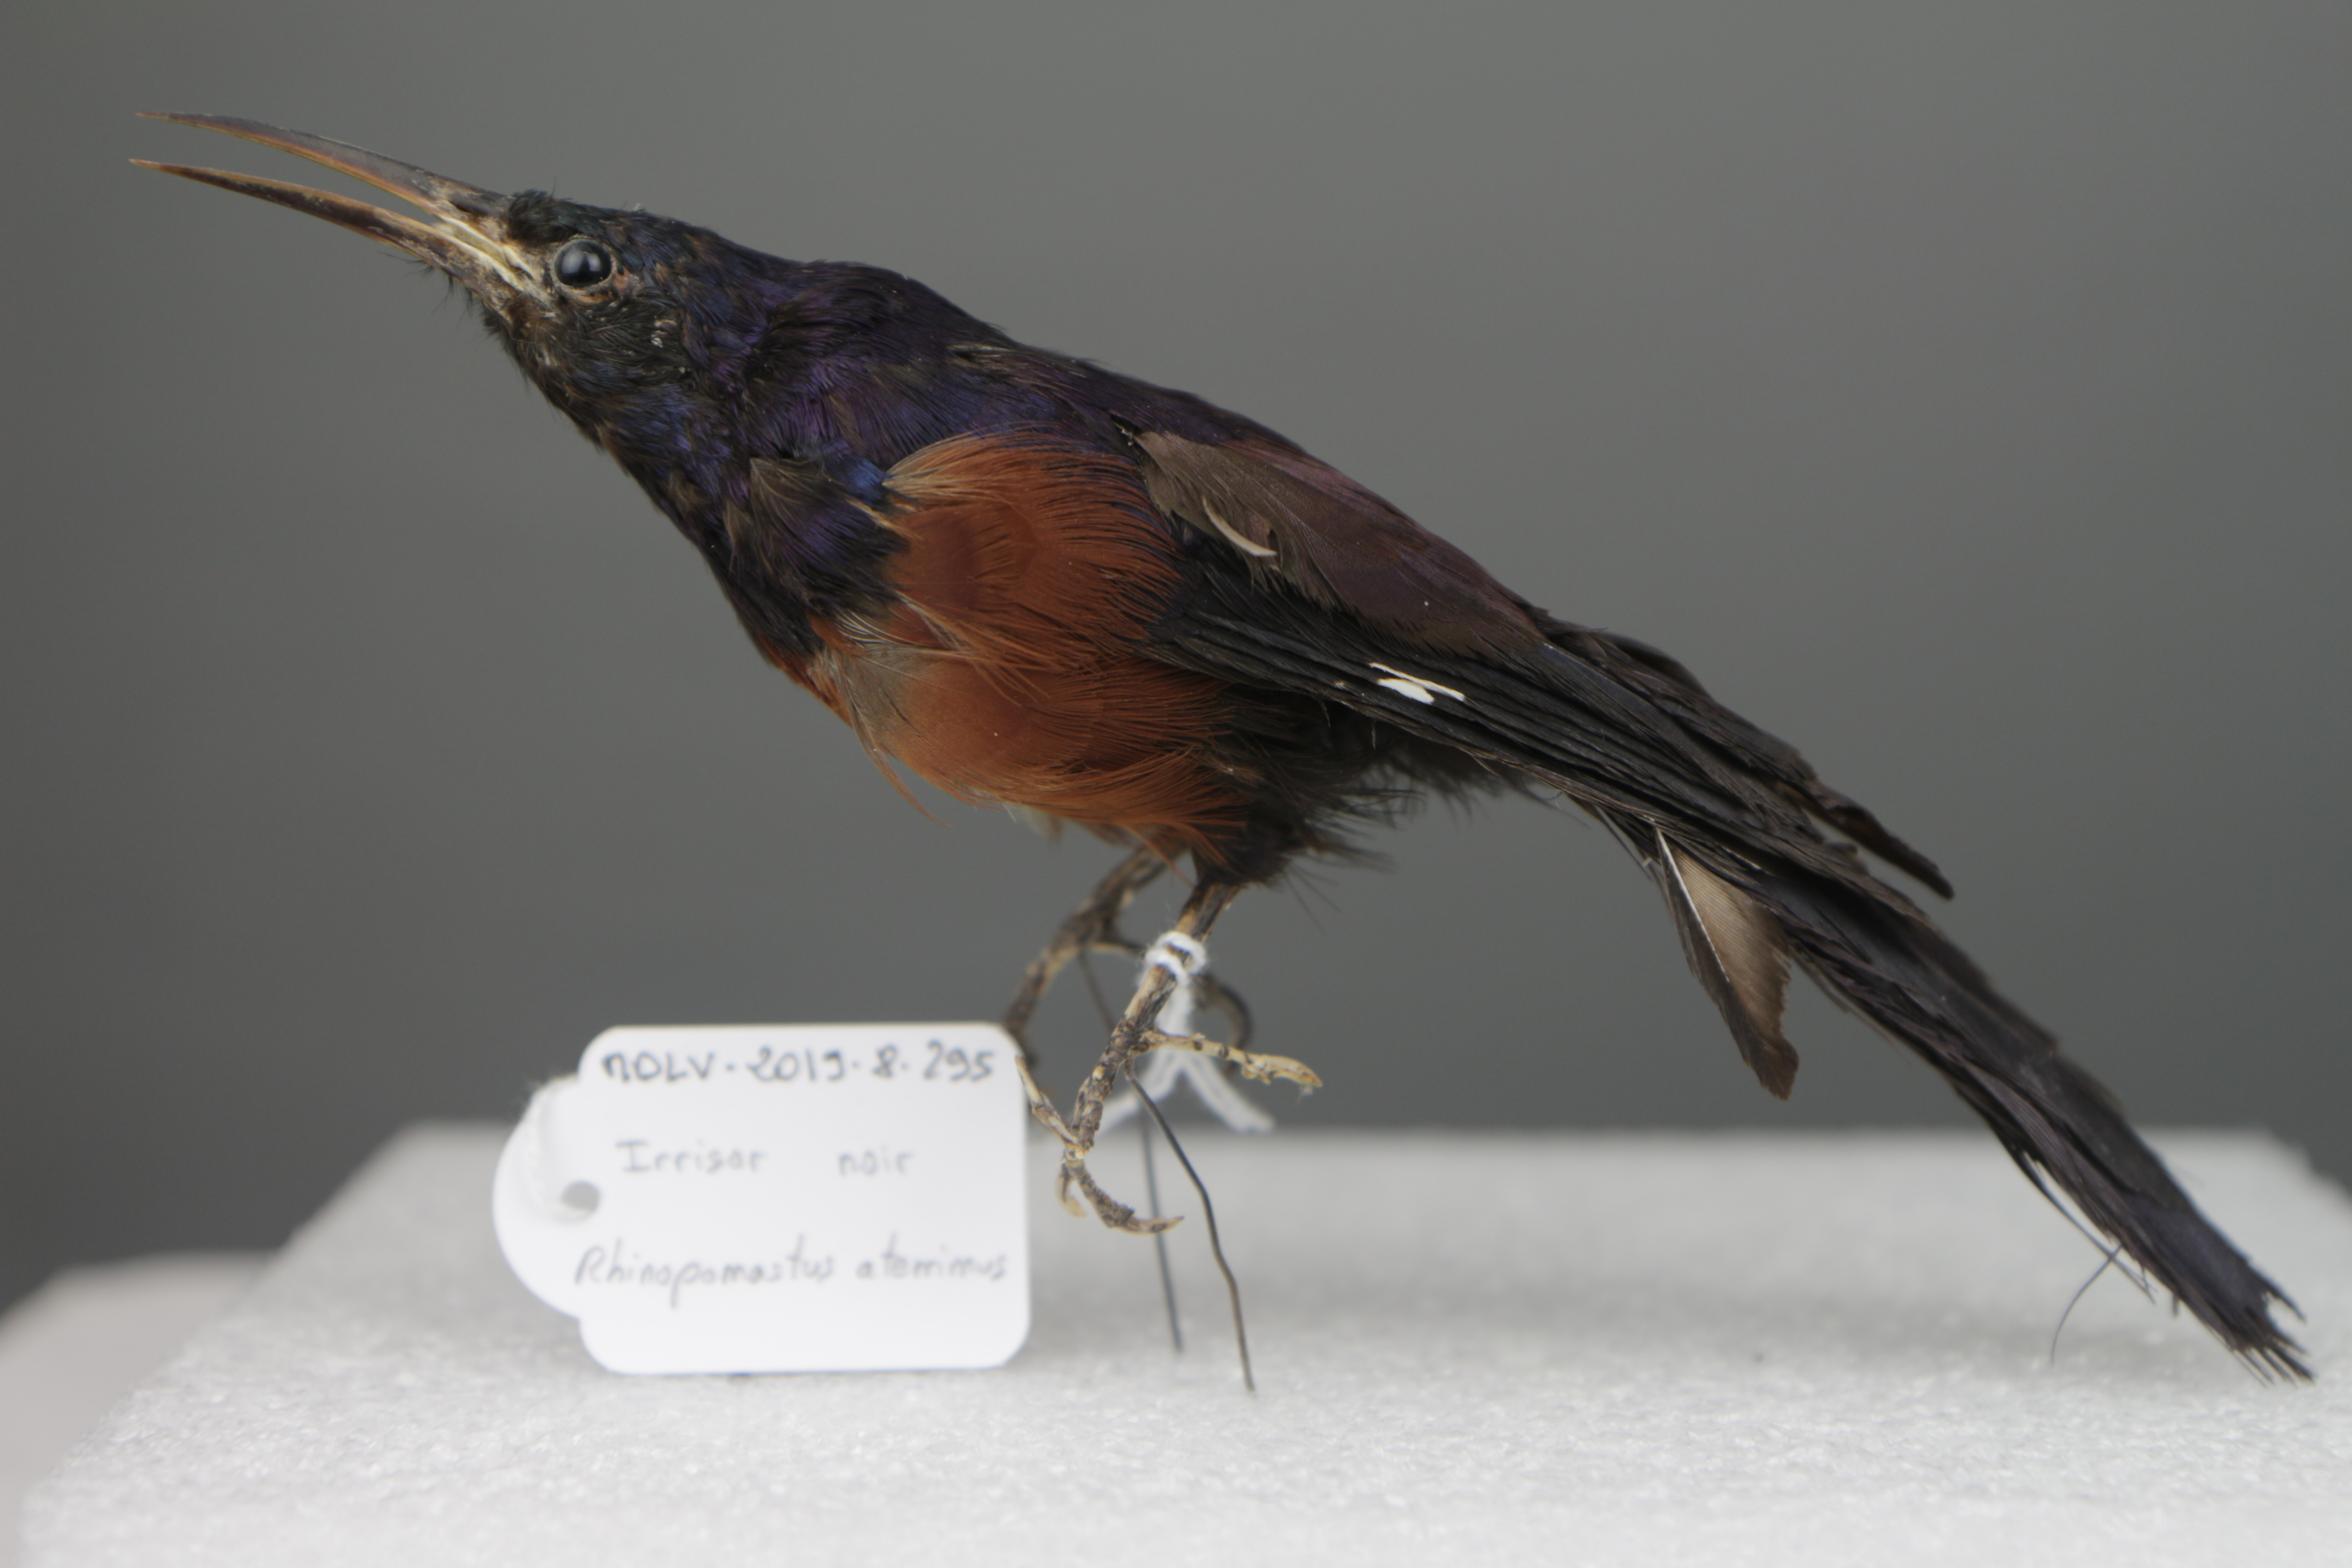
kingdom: Animalia
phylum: Chordata
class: Aves
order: Bucerotiformes
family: Phoeniculidae
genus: Rhinopomastus
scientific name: Rhinopomastus aterrimus
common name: Black scimitarbill
